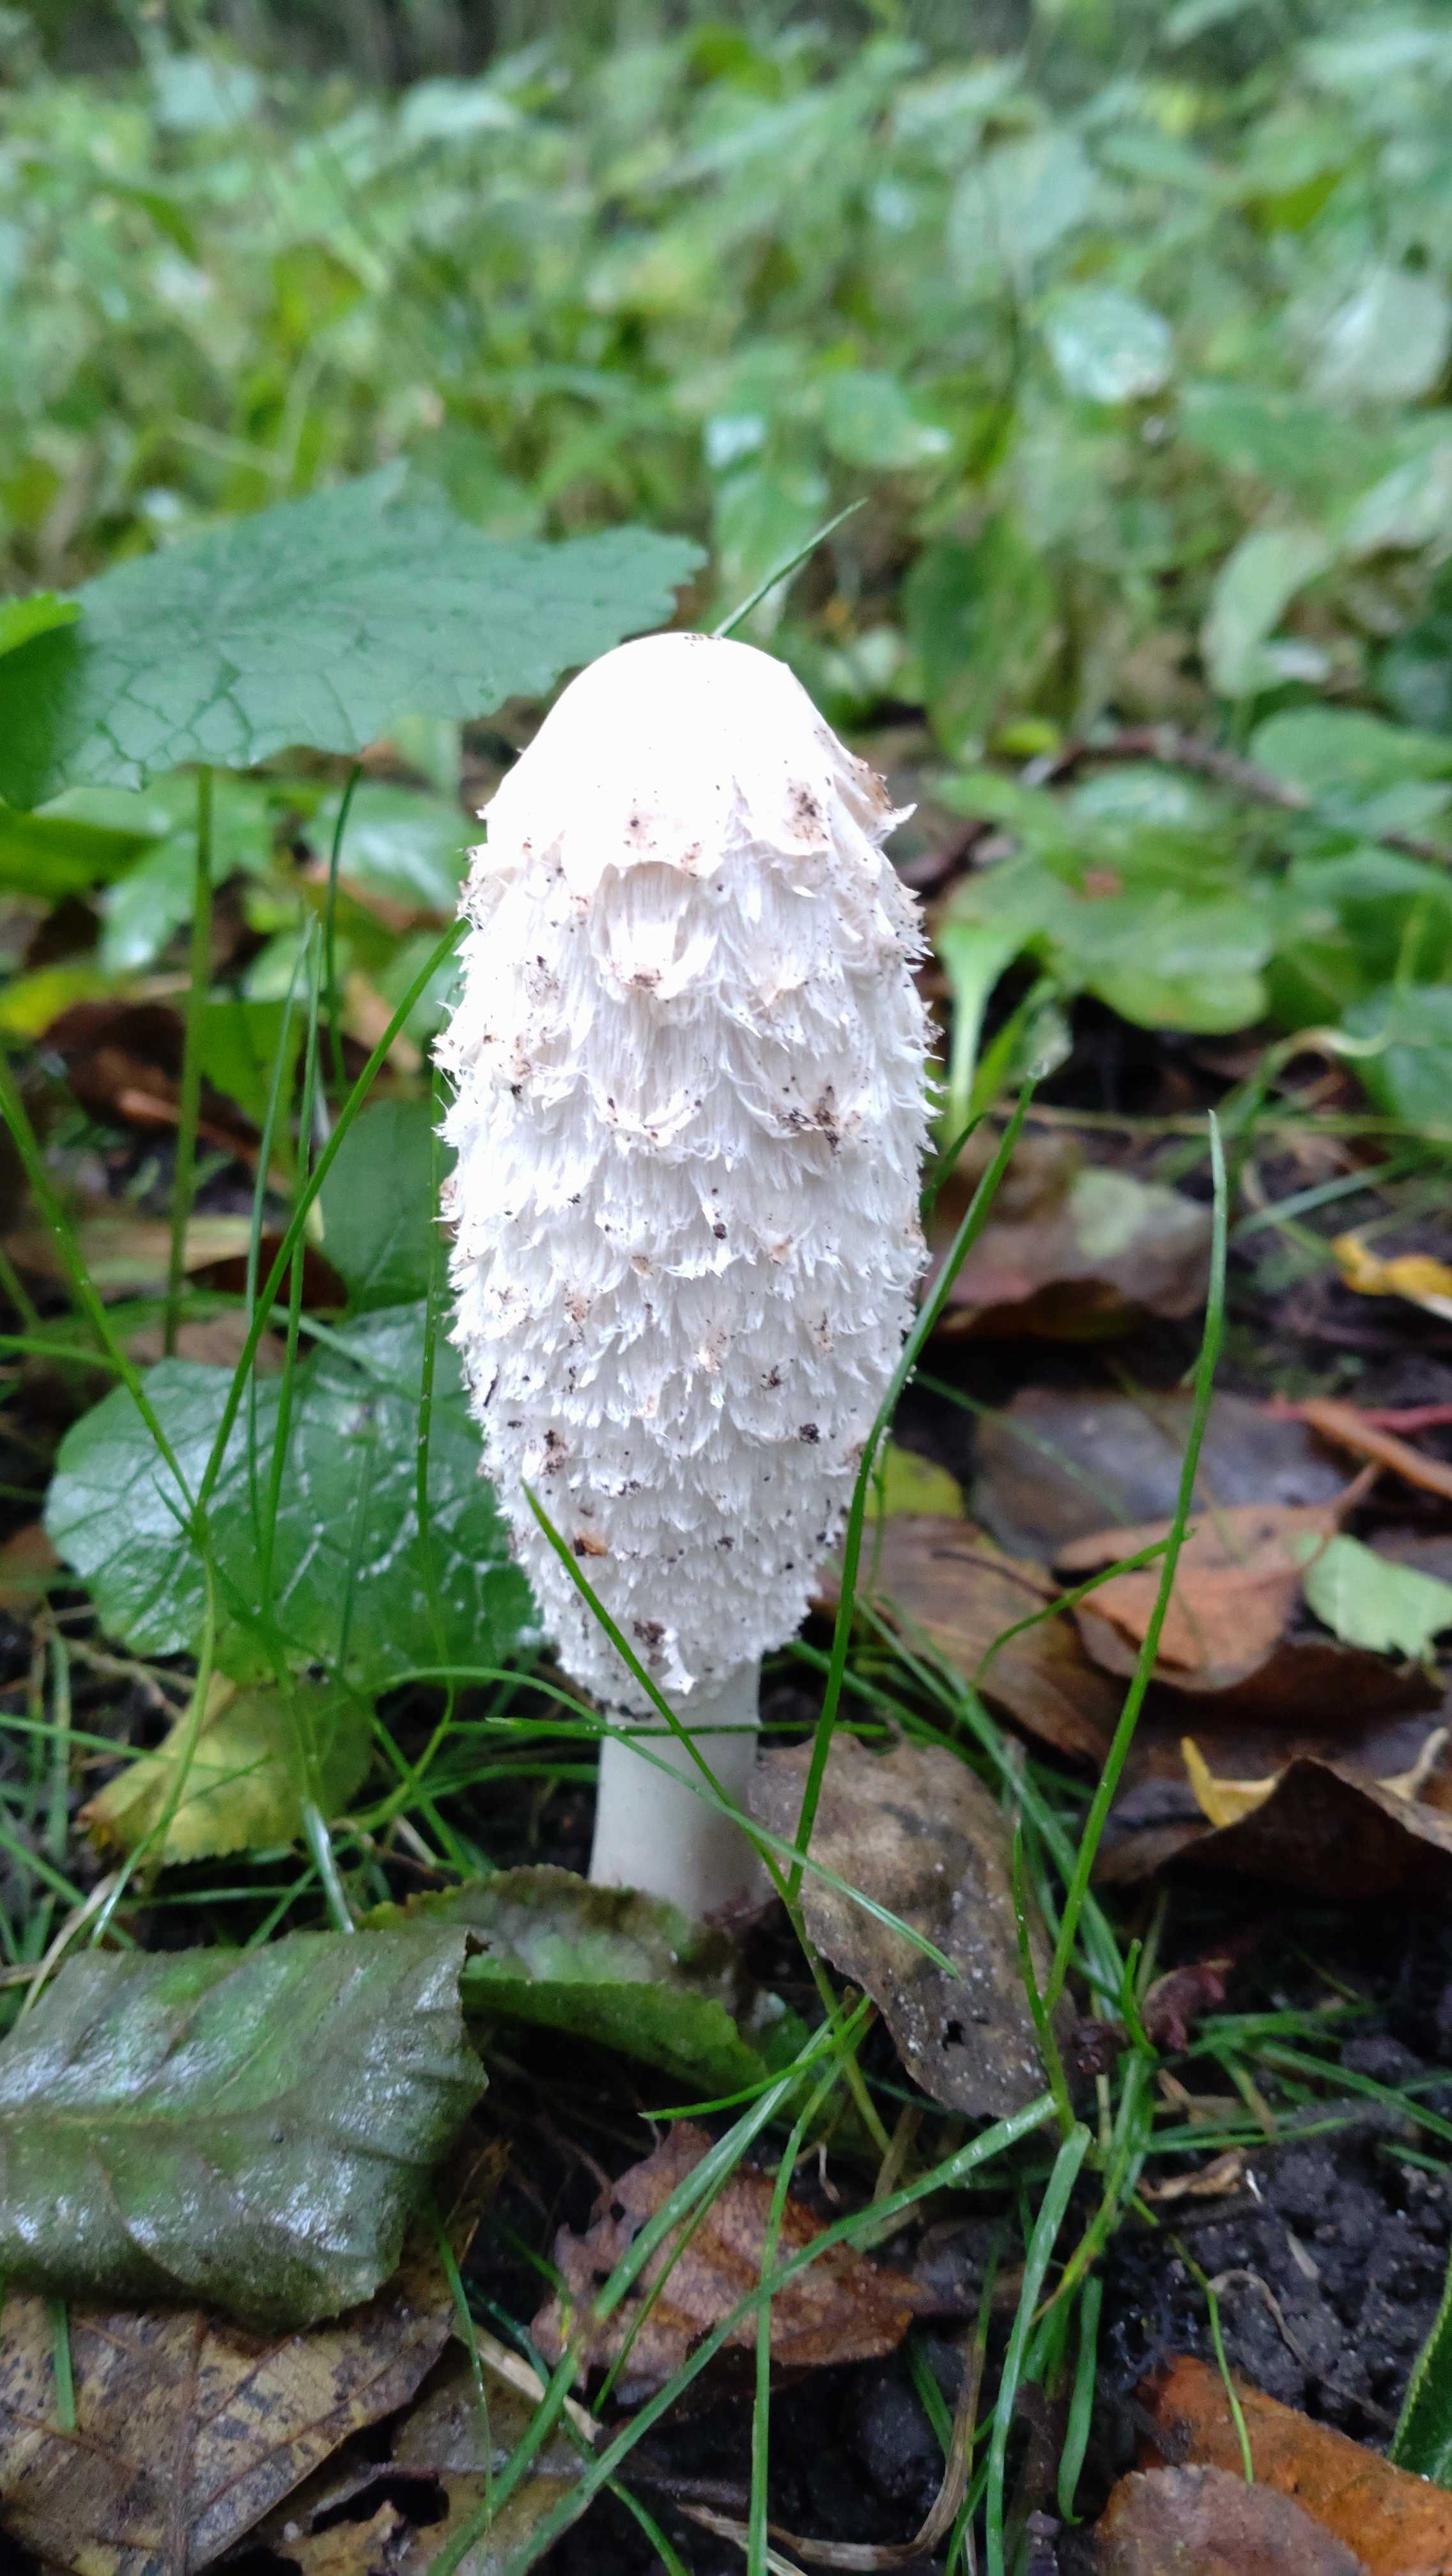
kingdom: Fungi
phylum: Basidiomycota
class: Agaricomycetes
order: Agaricales
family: Agaricaceae
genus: Coprinus
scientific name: Coprinus comatus
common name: stor parykhat
